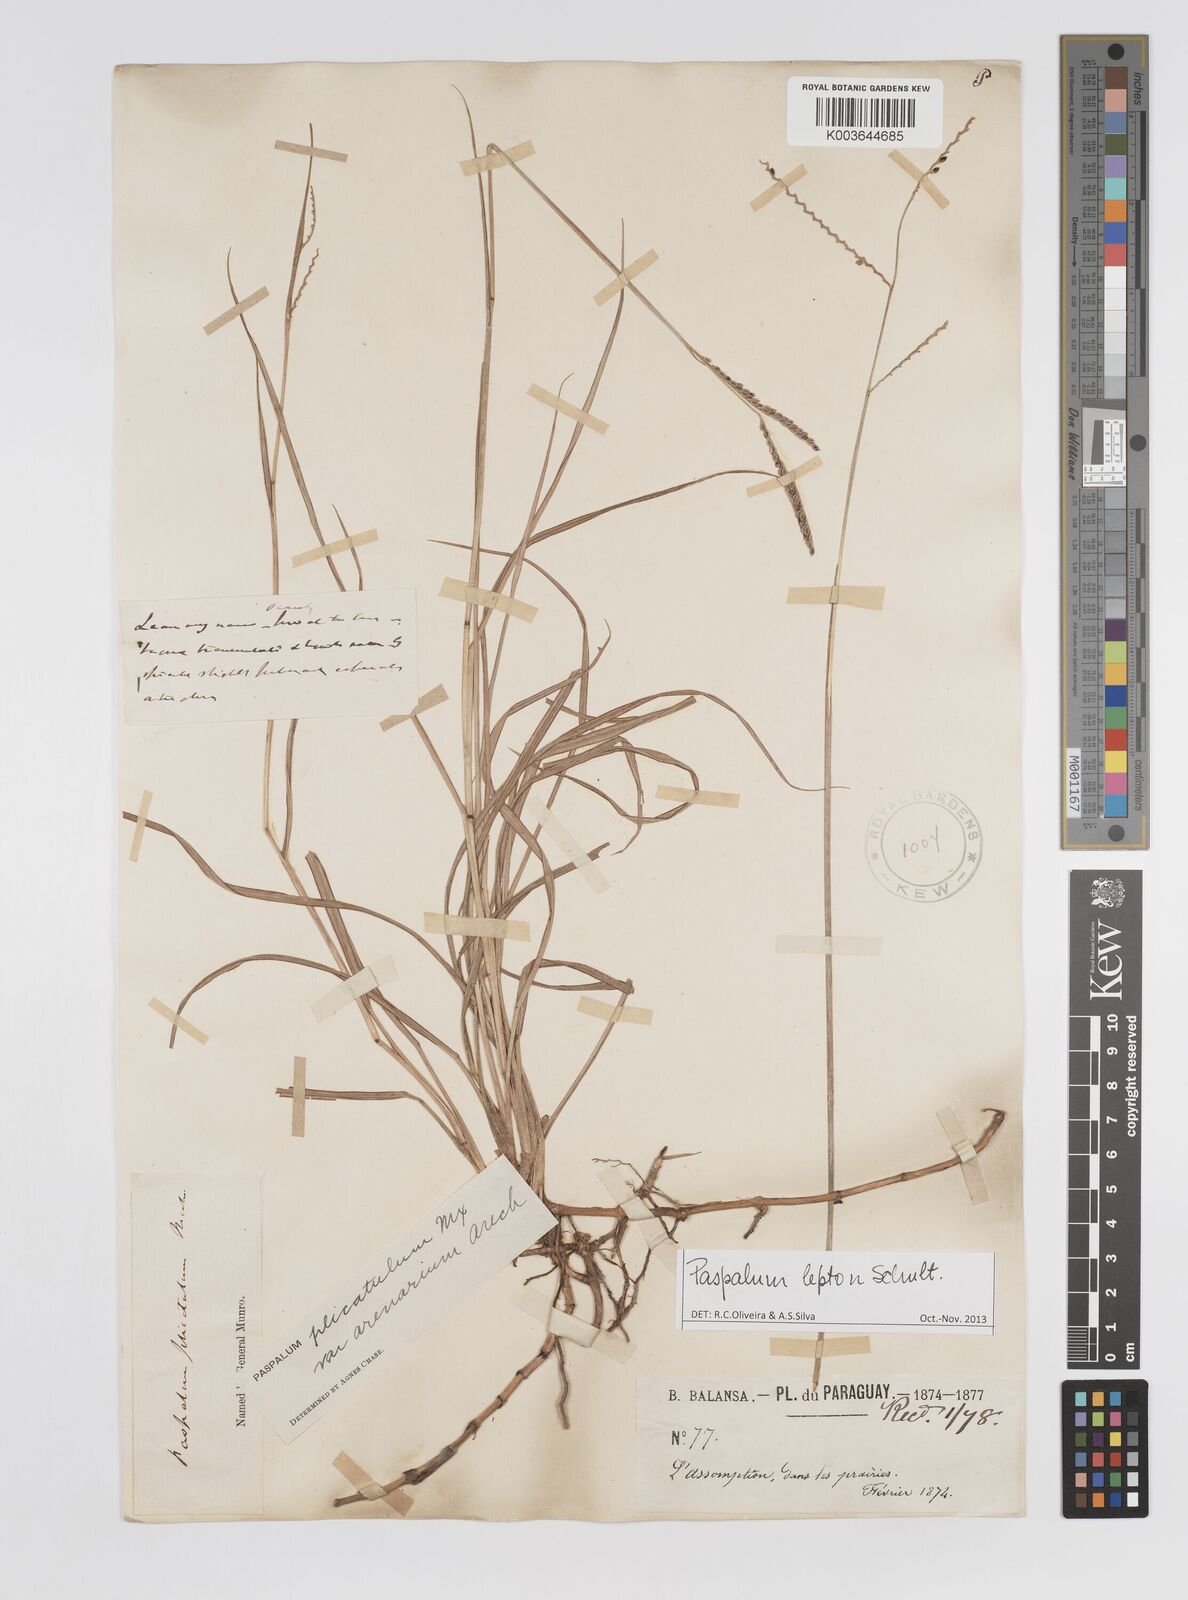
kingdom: Plantae
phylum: Tracheophyta
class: Liliopsida
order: Poales
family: Poaceae
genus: Paspalum
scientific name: Paspalum lepton
